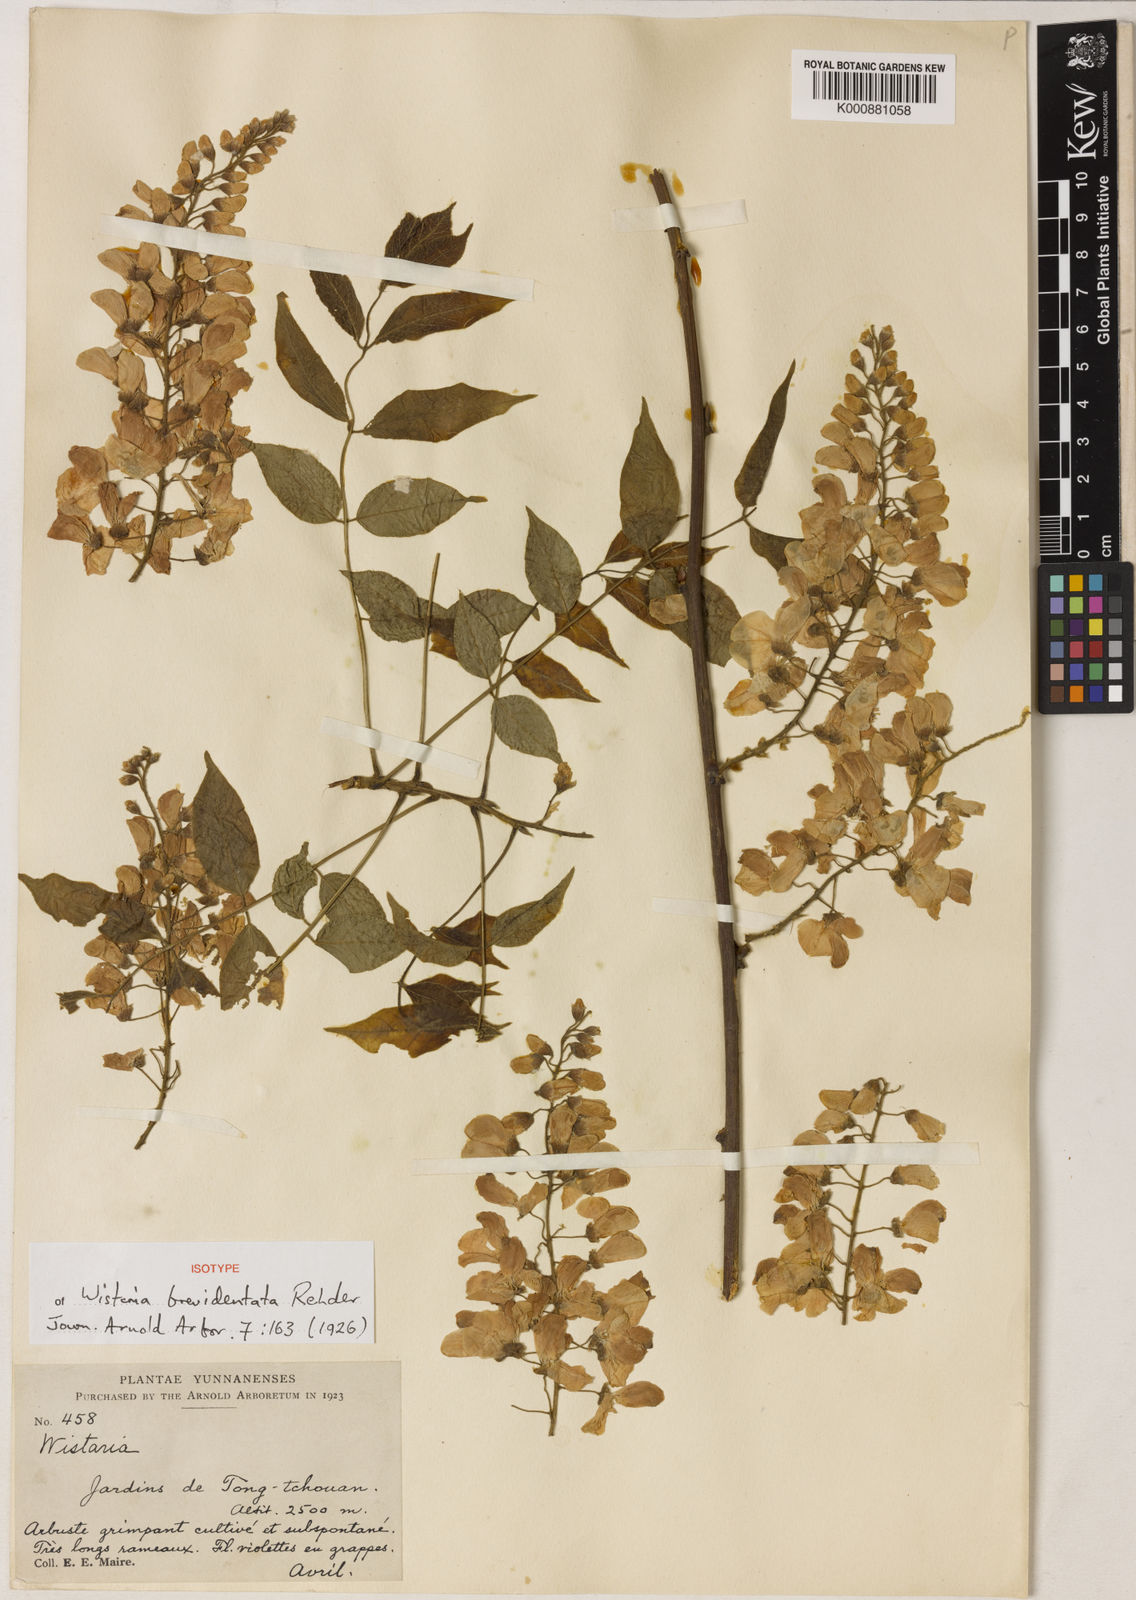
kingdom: Plantae
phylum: Tracheophyta
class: Magnoliopsida
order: Fabales
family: Fabaceae
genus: Wisteria
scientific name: Wisteria sinensis
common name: Chinese wisteria
